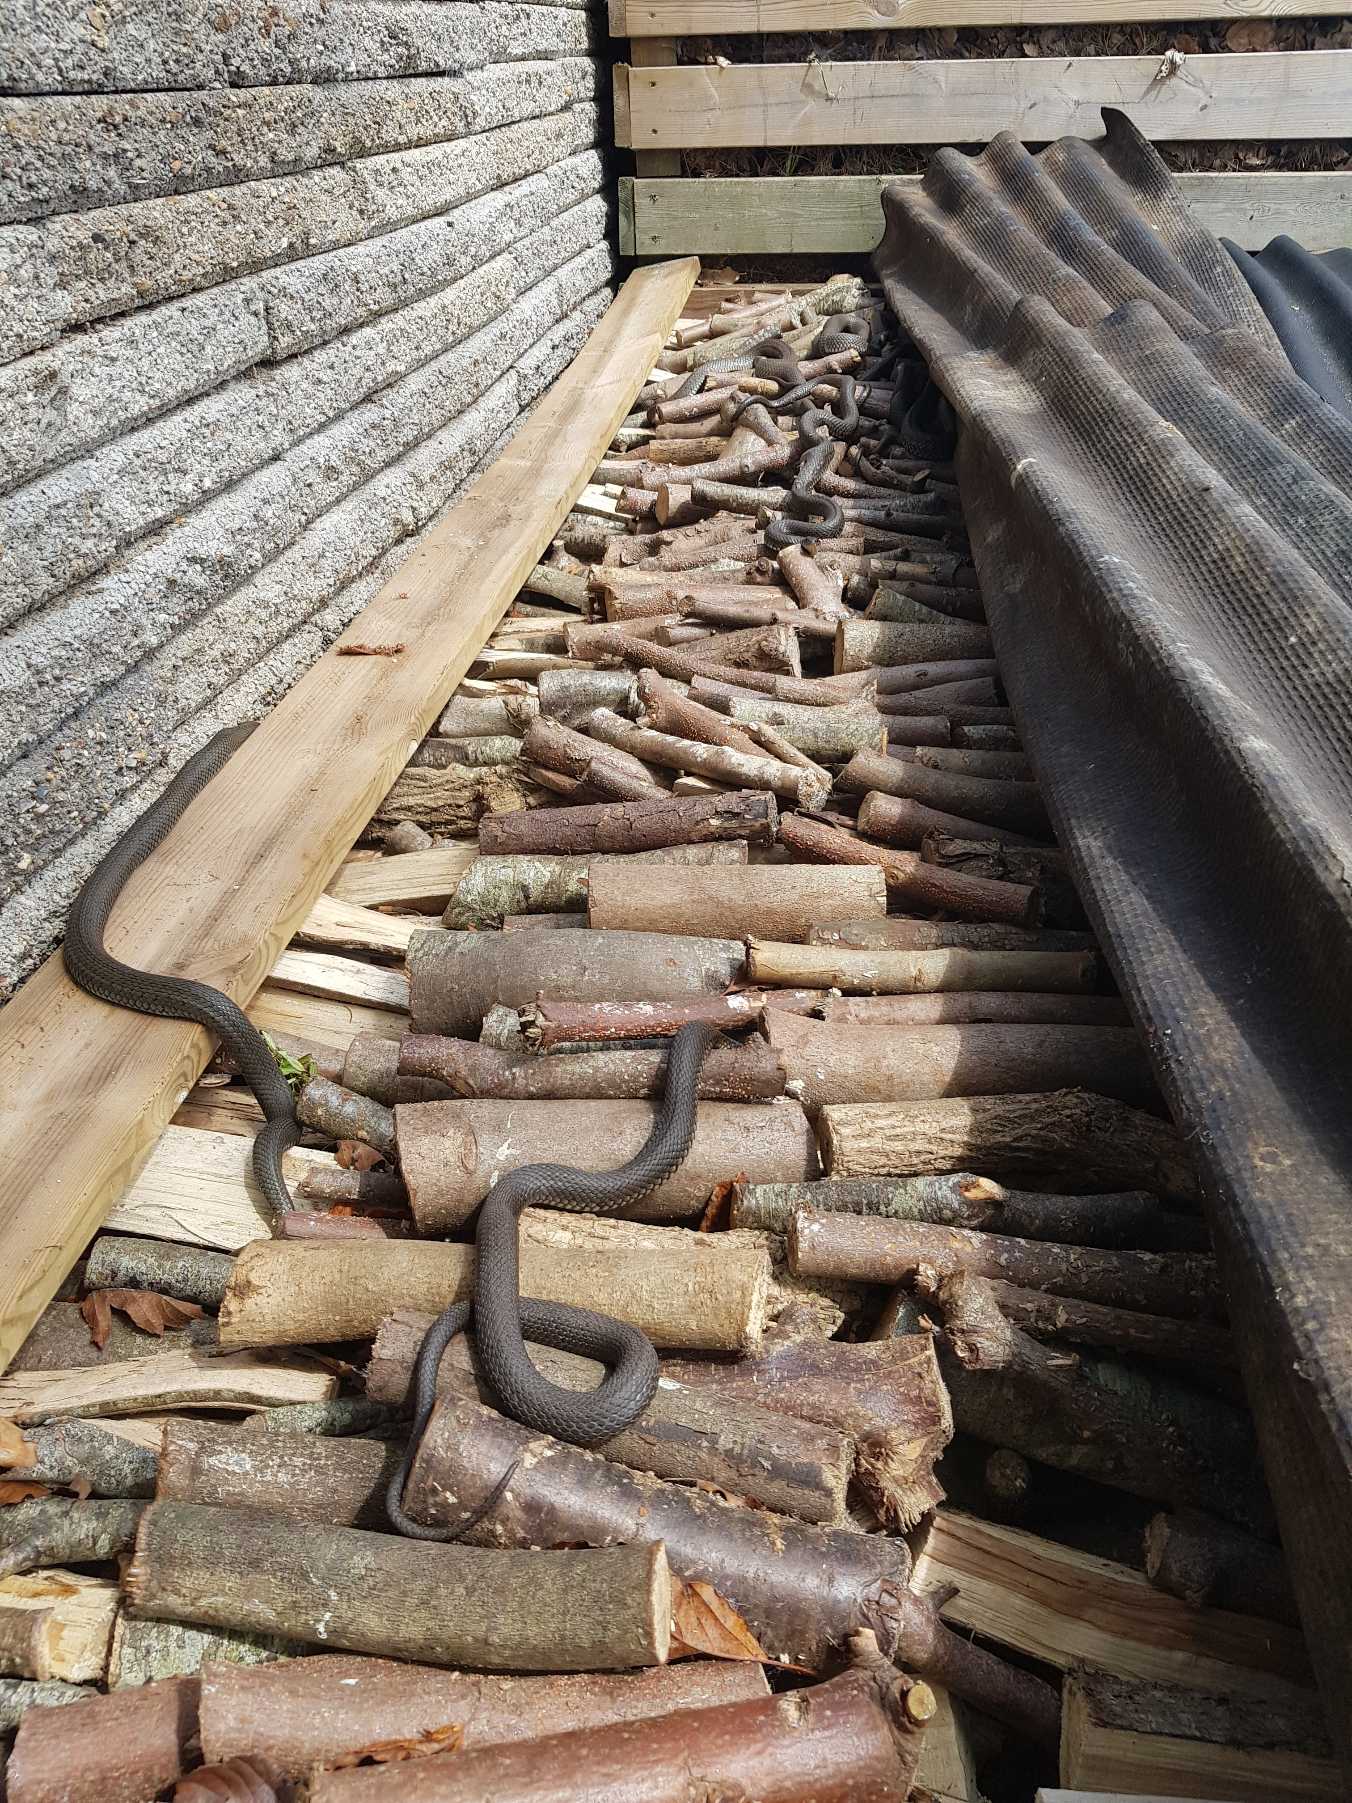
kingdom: Animalia
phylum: Chordata
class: Squamata
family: Colubridae
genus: Natrix
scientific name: Natrix natrix
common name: Snog
